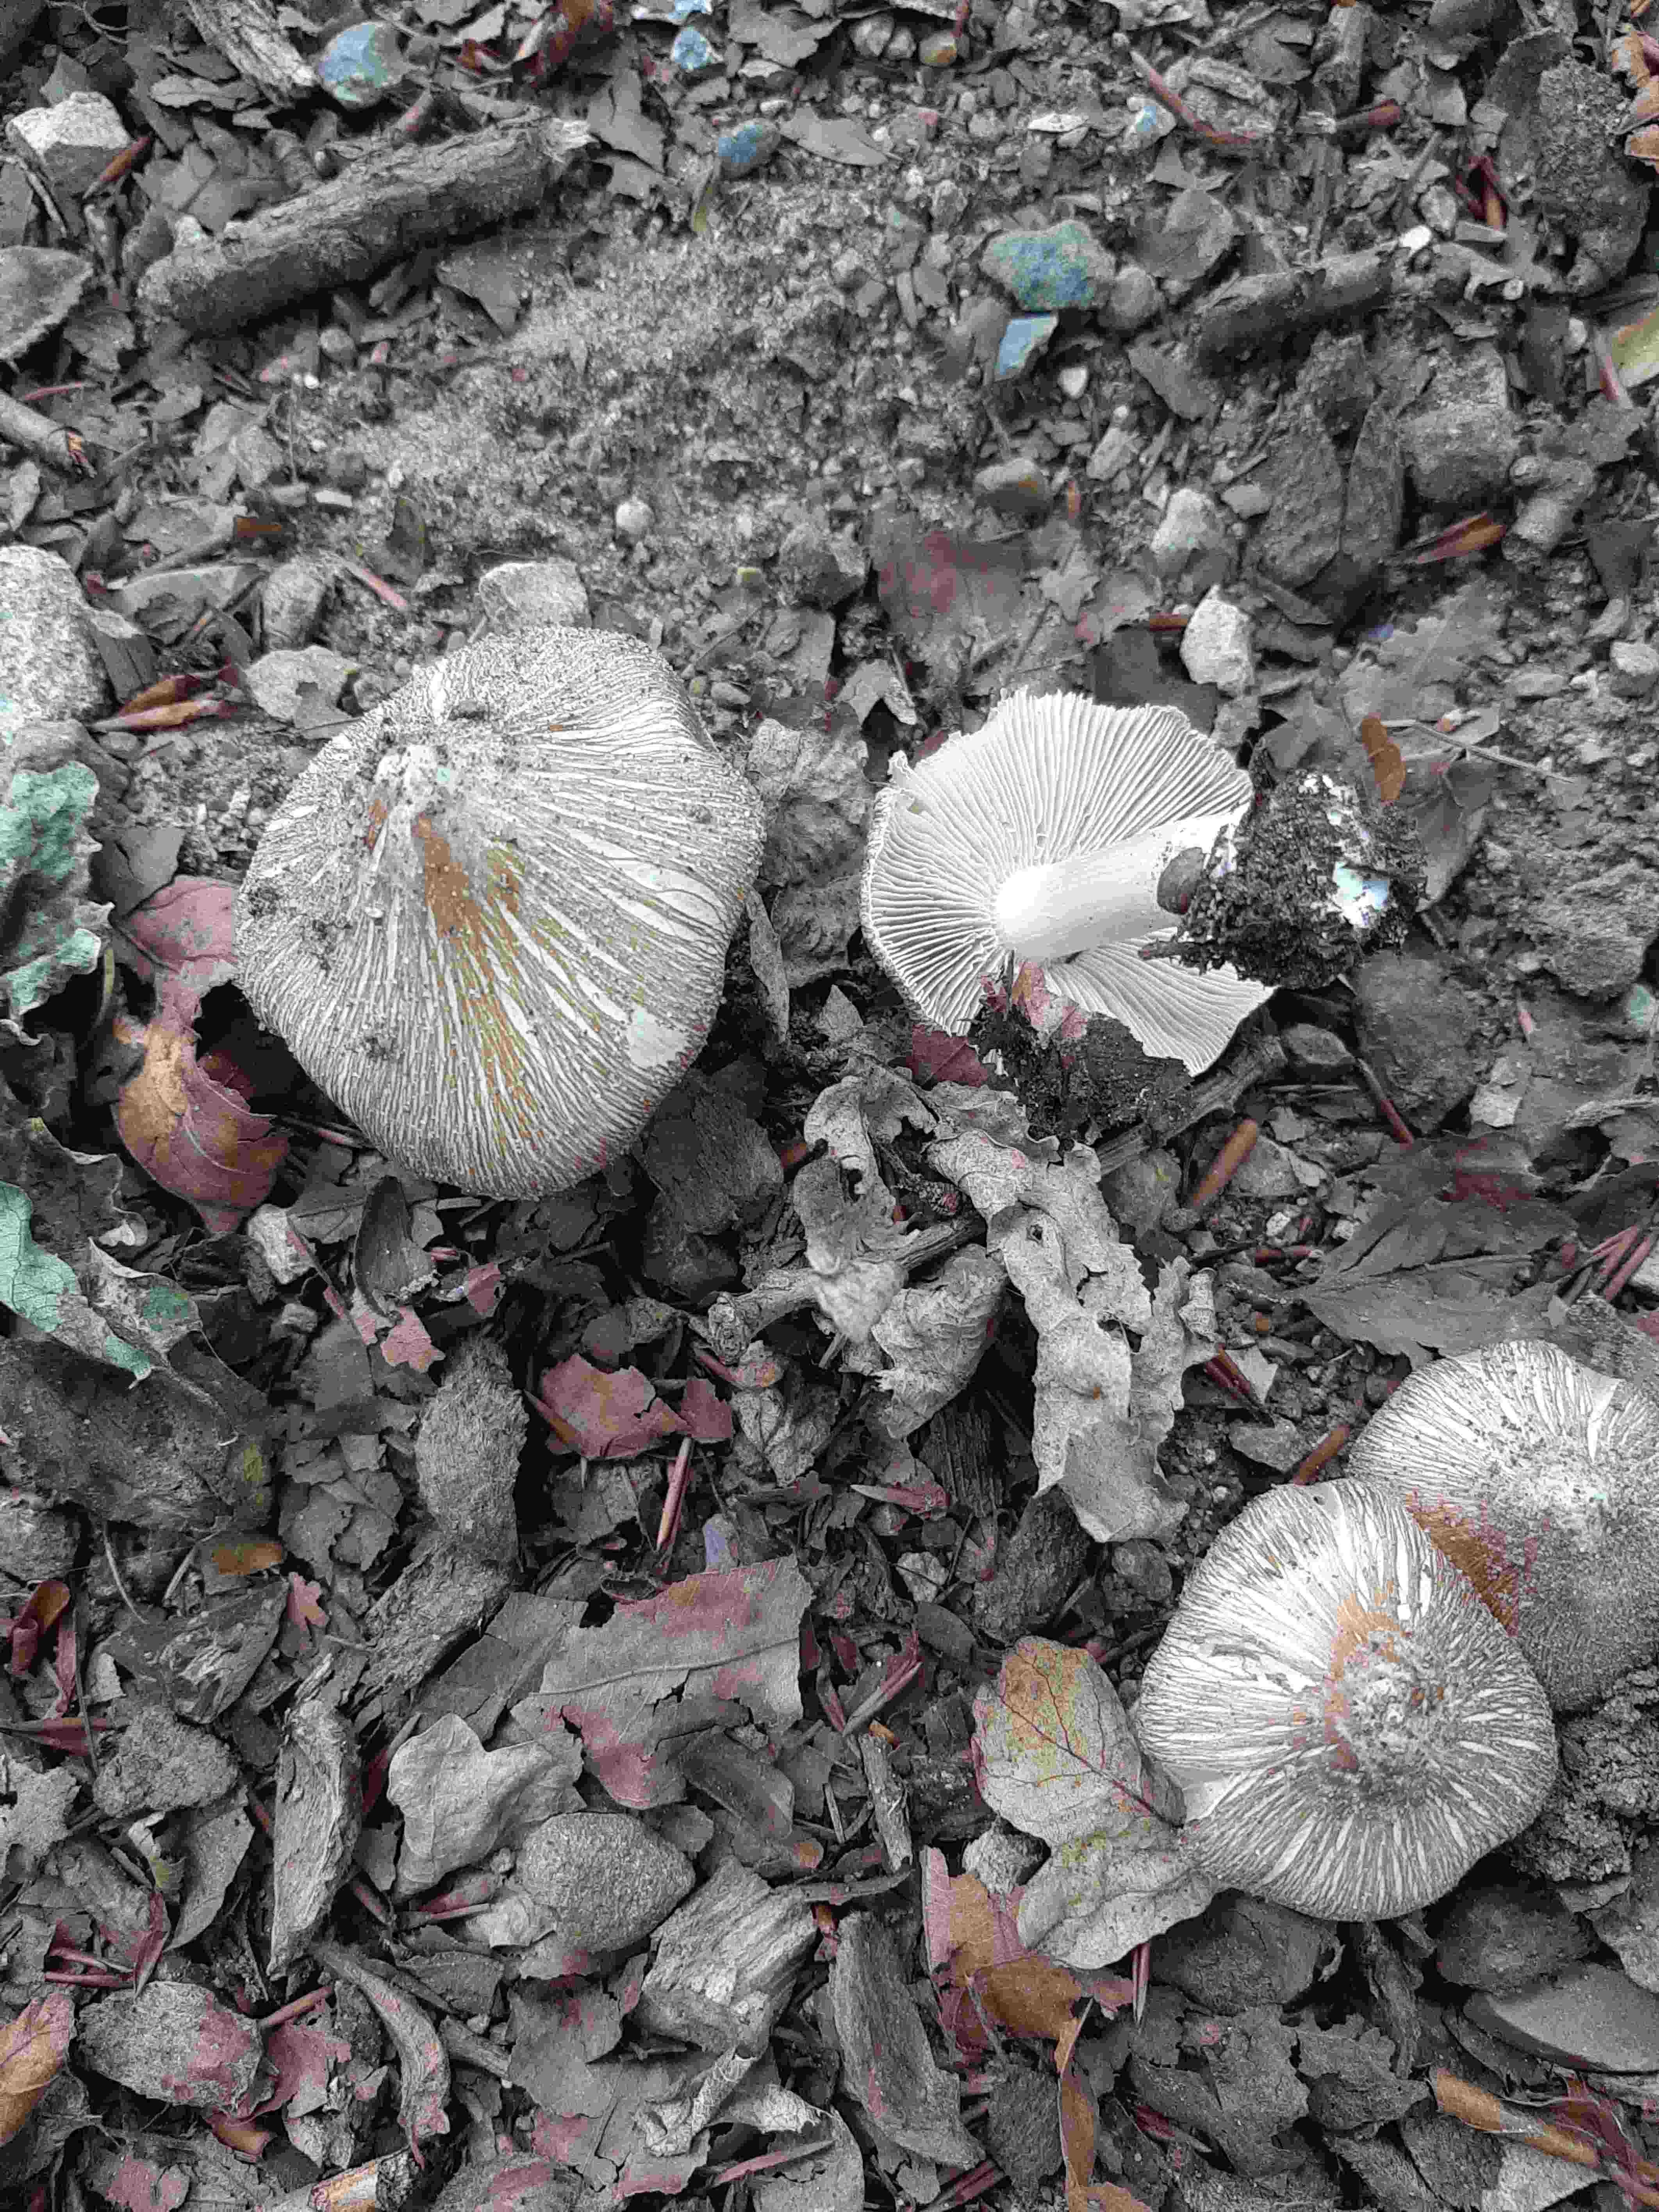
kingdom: Fungi
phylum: Basidiomycota
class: Agaricomycetes
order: Agaricales
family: Inocybaceae
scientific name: Inocybaceae
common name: trævlhatfamilien
